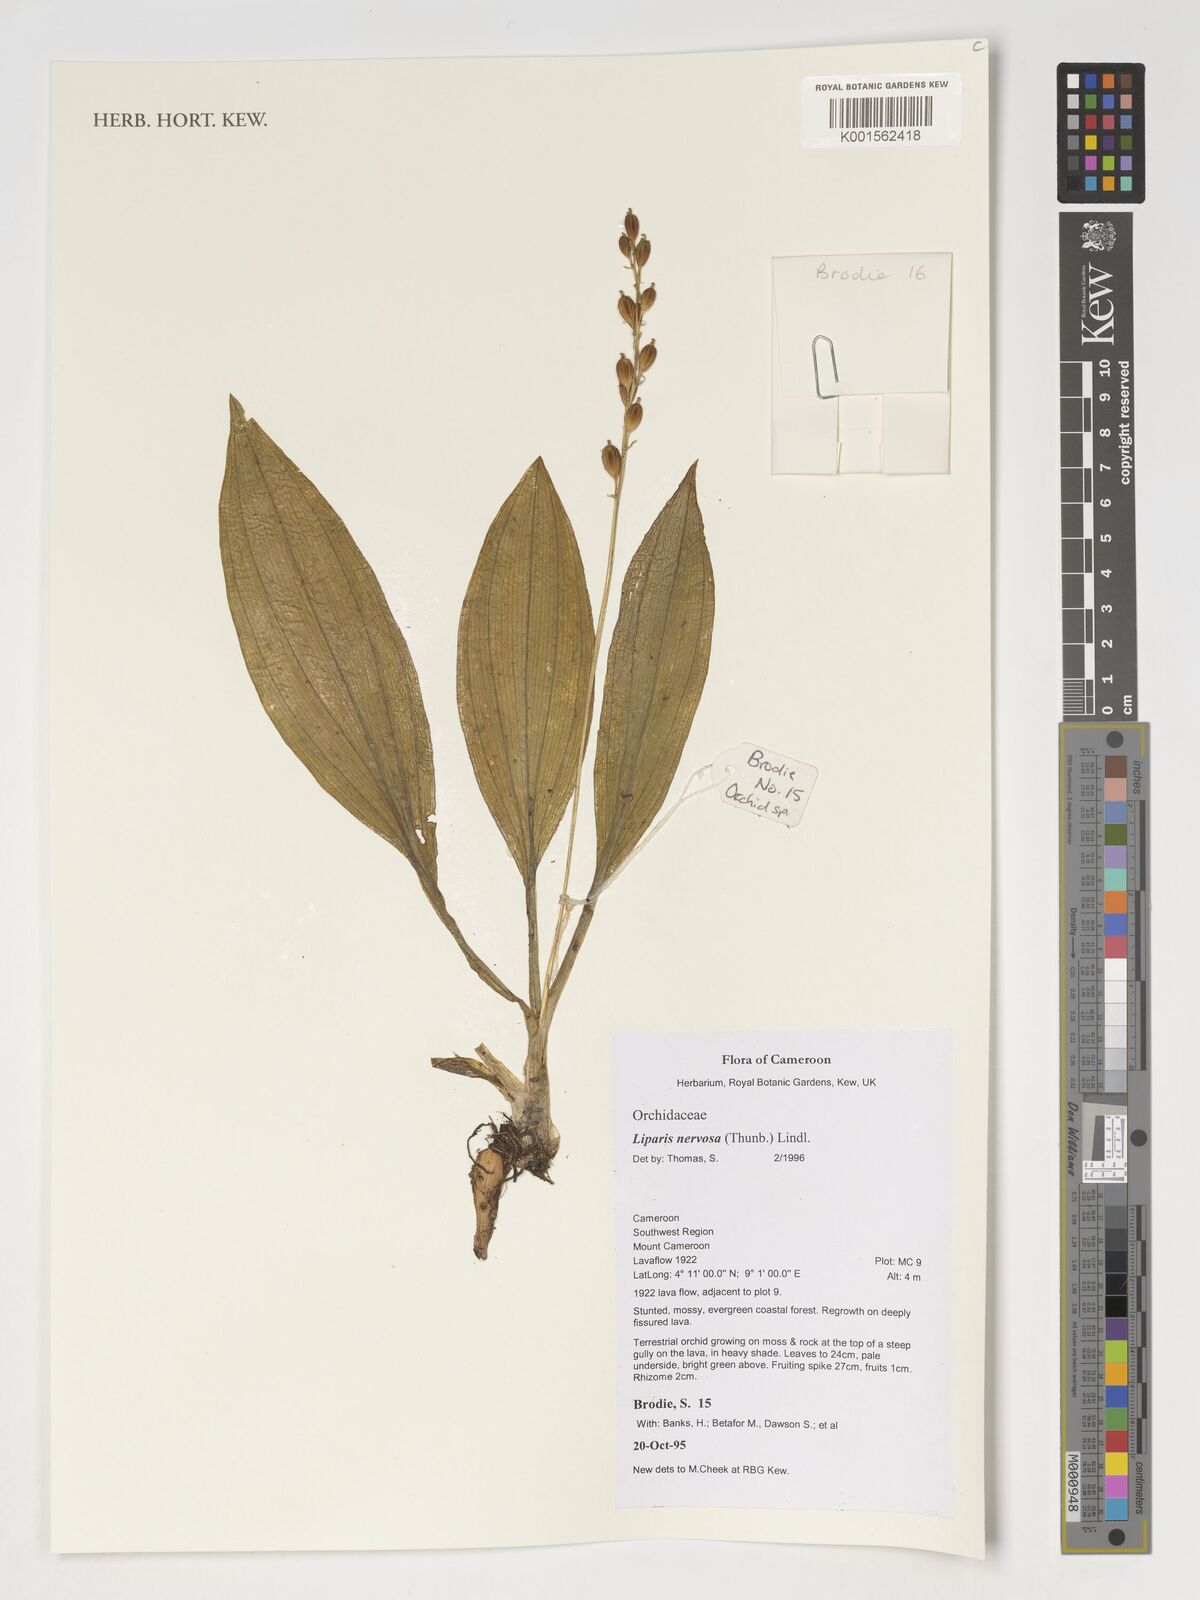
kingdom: Plantae
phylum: Tracheophyta
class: Liliopsida
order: Asparagales
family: Orchidaceae
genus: Liparis
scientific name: Liparis nervosa
